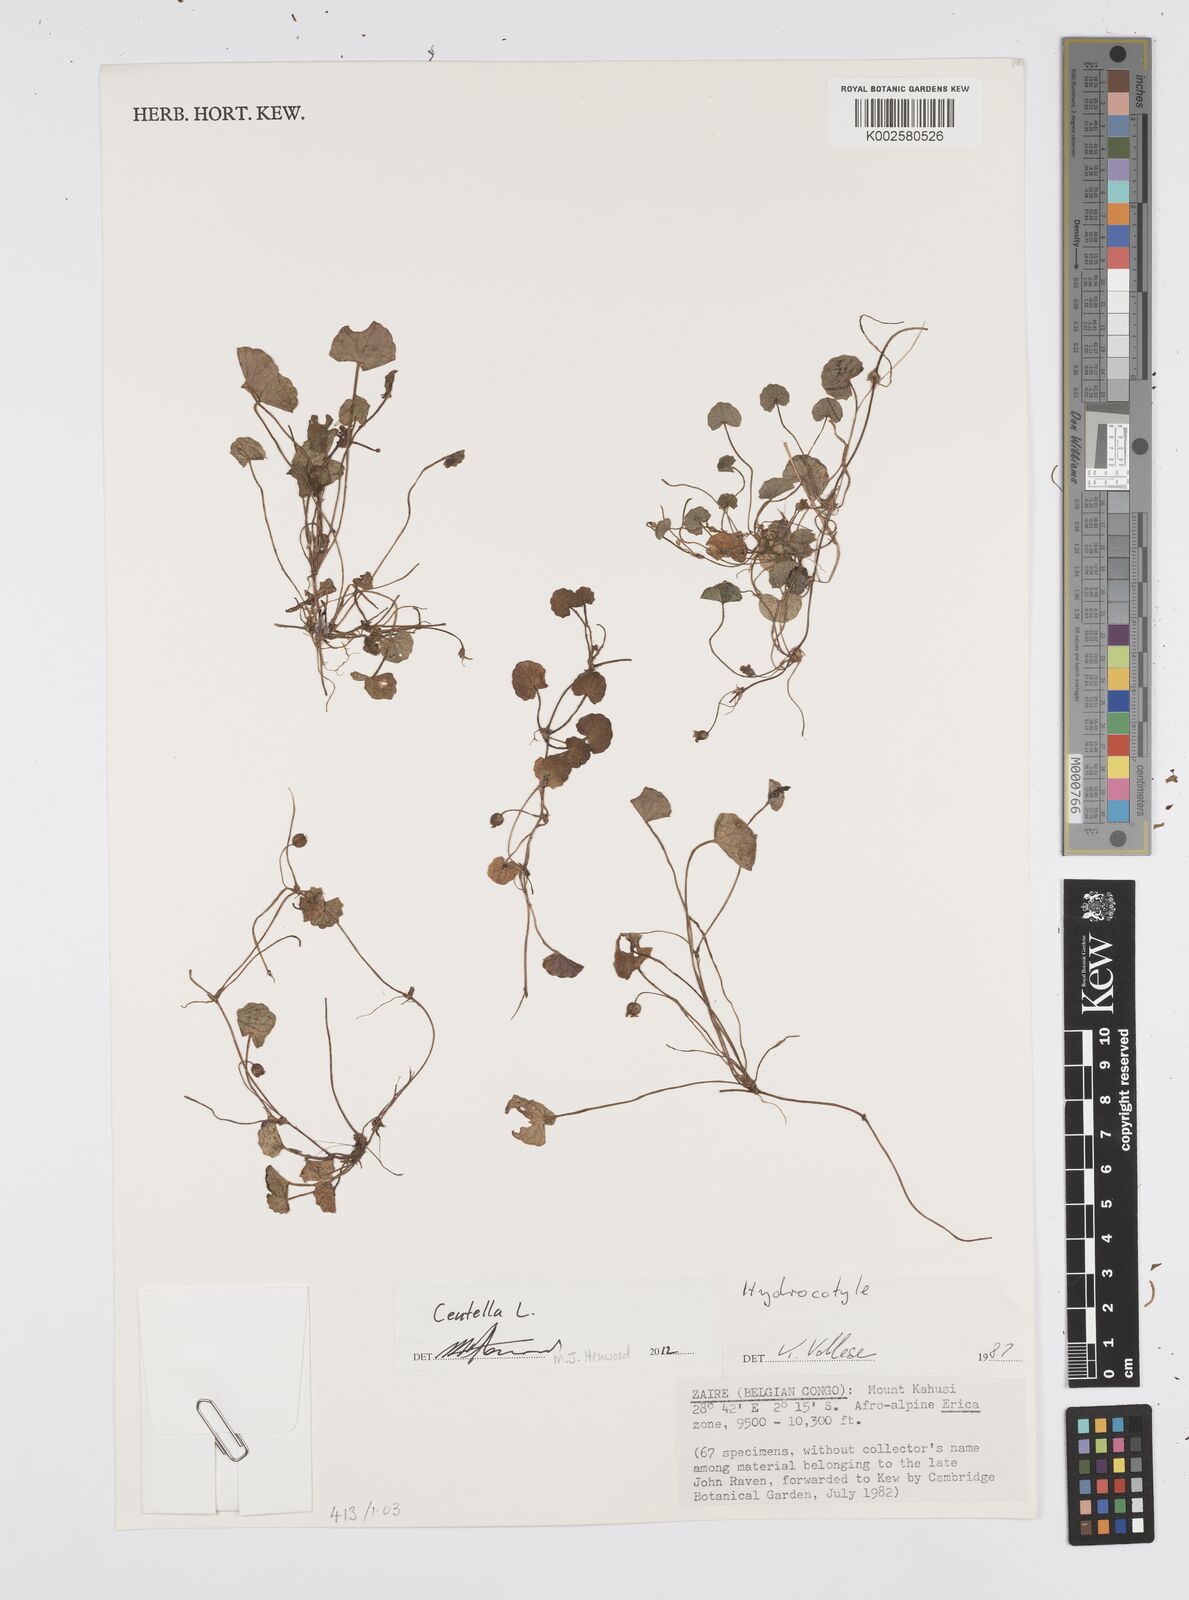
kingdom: Plantae
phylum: Tracheophyta
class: Magnoliopsida
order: Apiales
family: Apiaceae
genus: Centella
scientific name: Centella asiatica
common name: Spadeleaf
